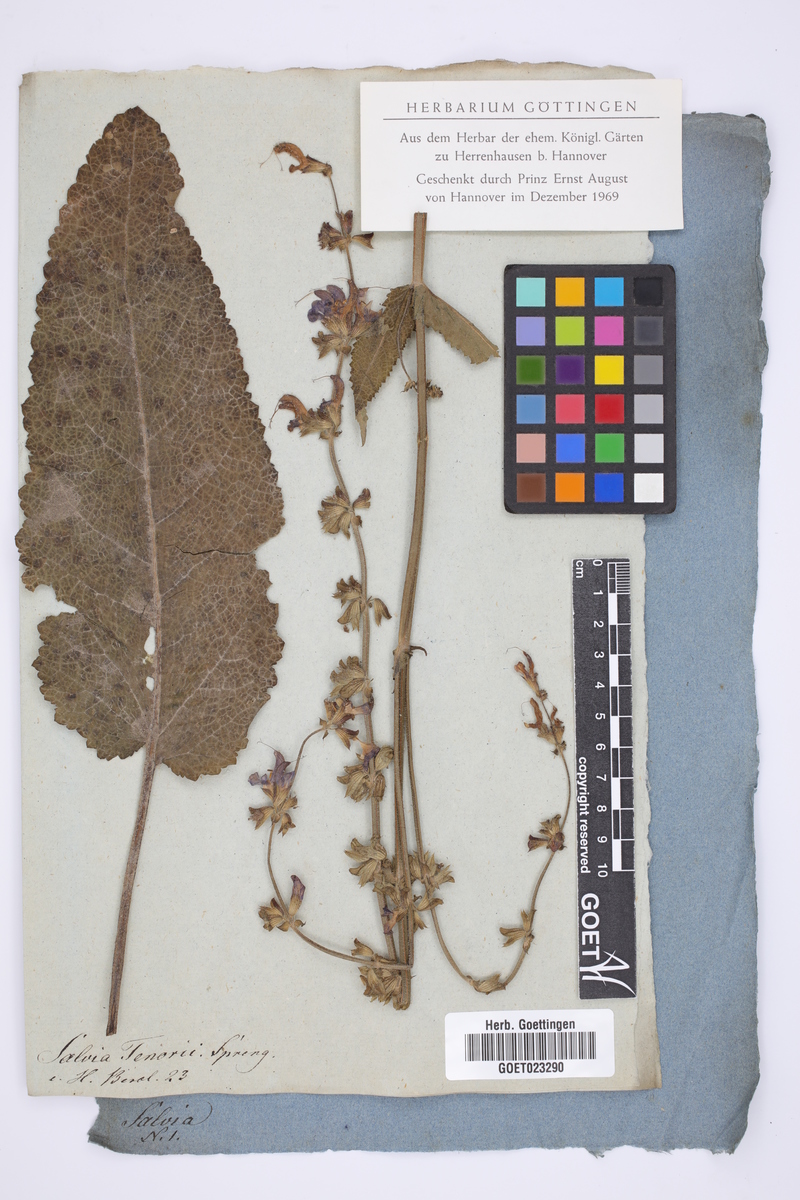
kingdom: Plantae
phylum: Tracheophyta
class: Magnoliopsida
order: Lamiales
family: Lamiaceae
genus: Salvia
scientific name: Salvia pratensis
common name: Meadow sage
